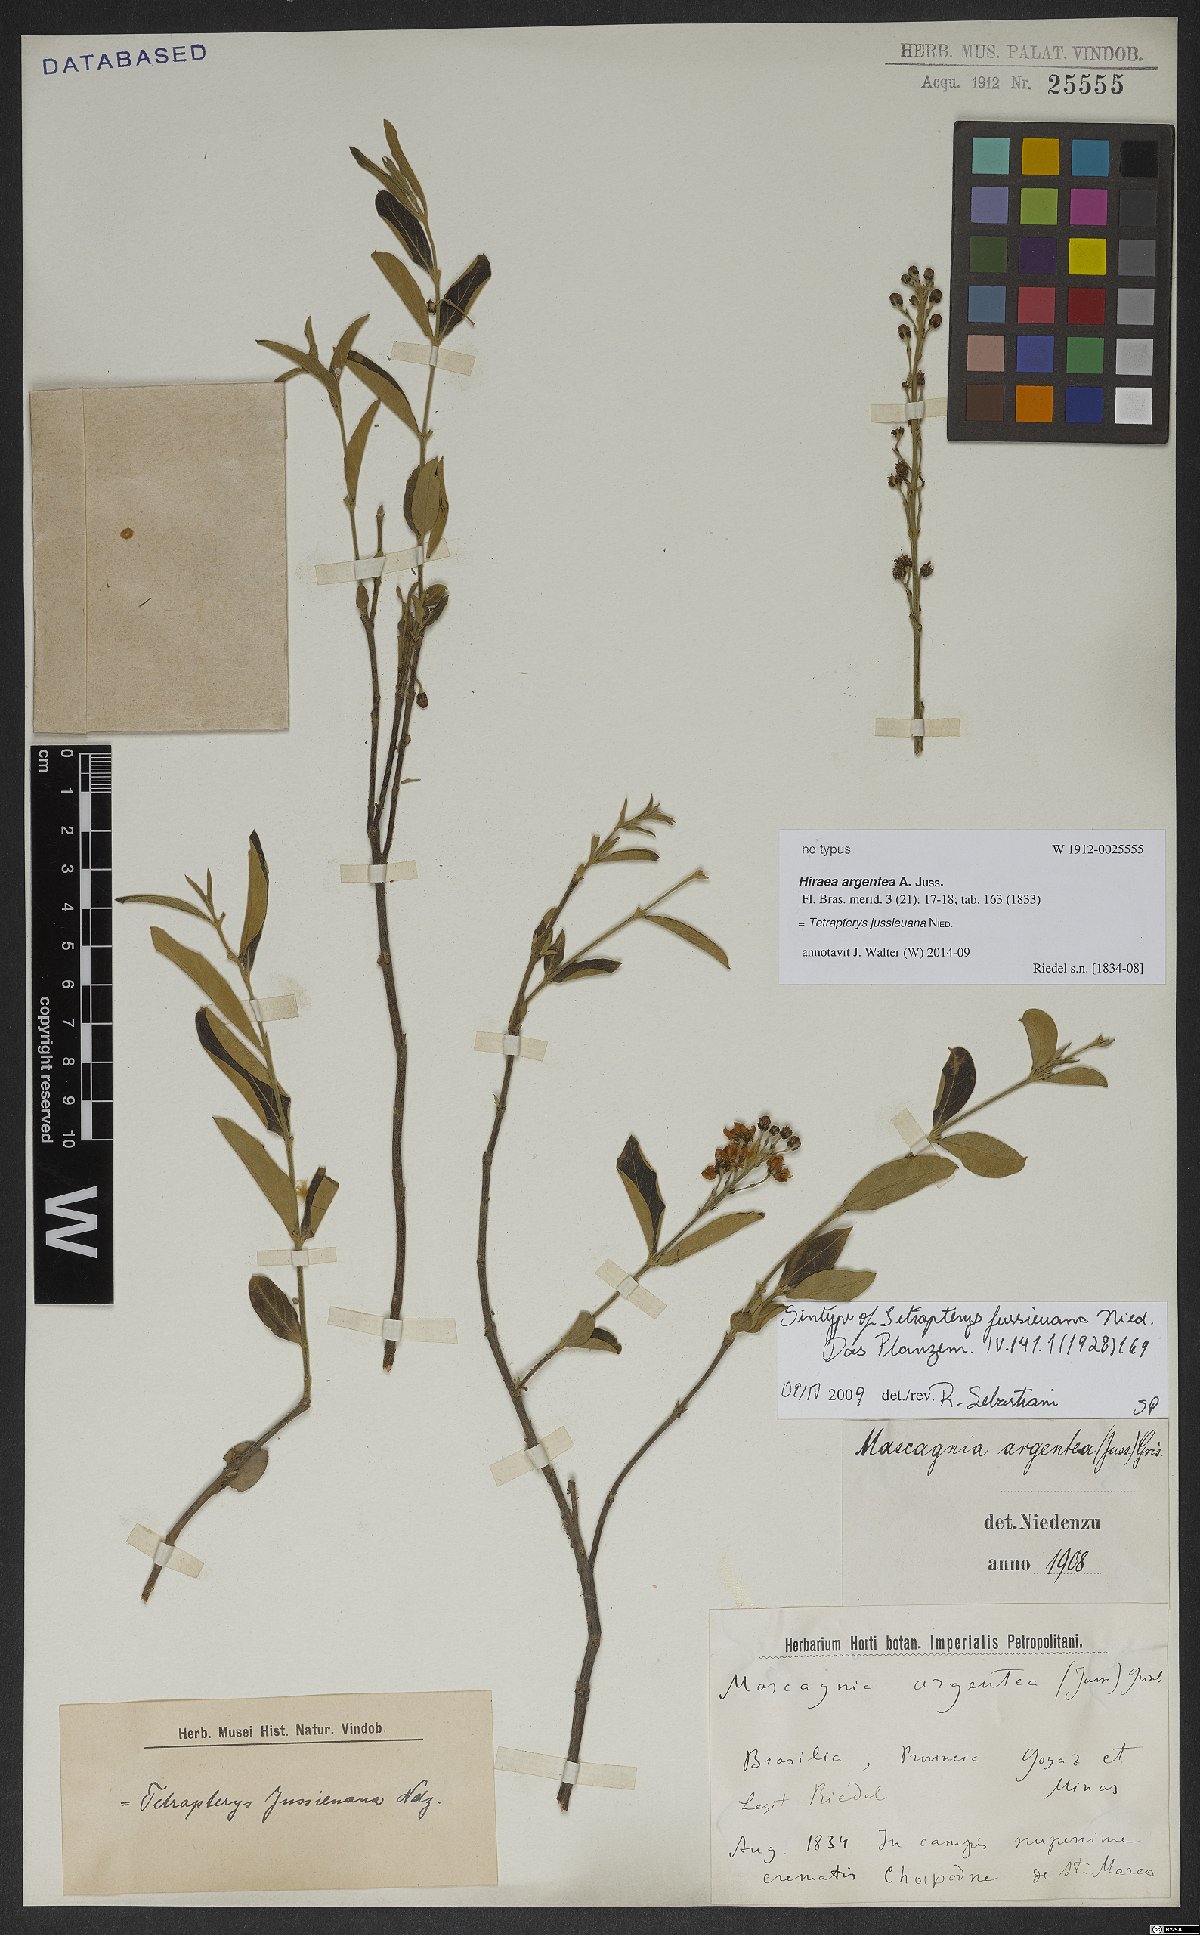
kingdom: Plantae
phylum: Tracheophyta
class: Magnoliopsida
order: Malpighiales
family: Malpighiaceae
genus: Glicophyllum
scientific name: Glicophyllum jussieuanum
